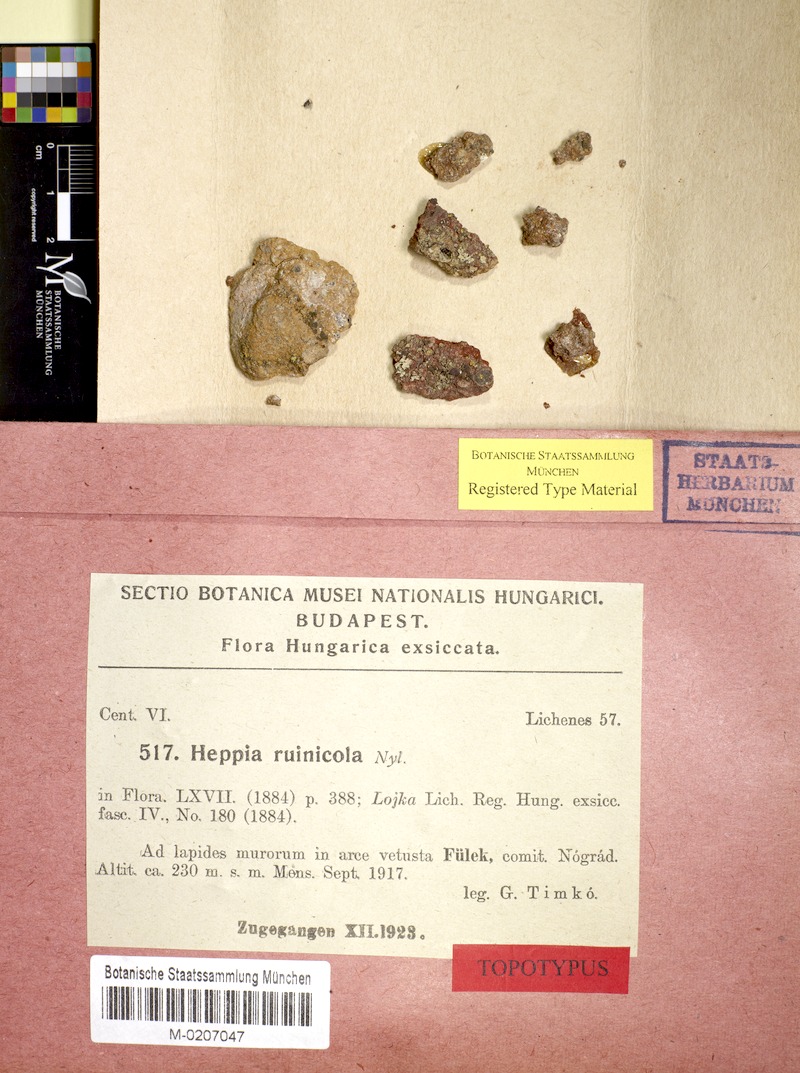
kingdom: Fungi
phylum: Ascomycota
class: Lichinomycetes
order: Lichinales
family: Peltulaceae
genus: Peltula
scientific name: Peltula euploca
